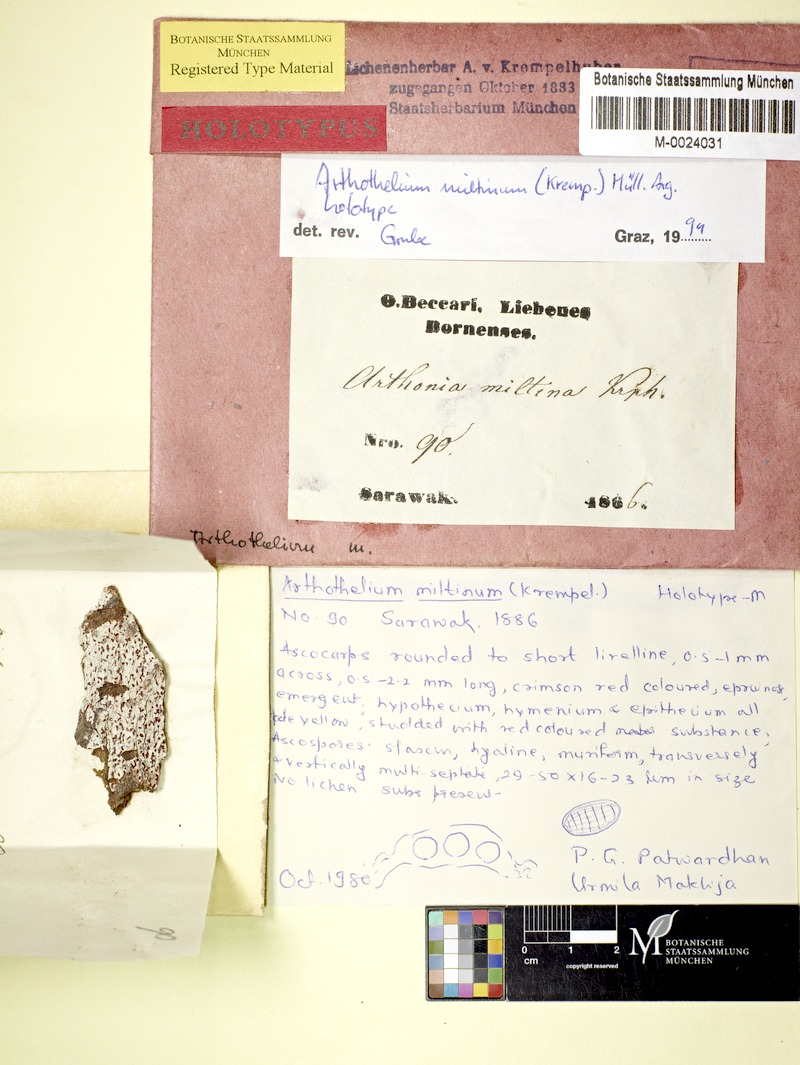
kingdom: Fungi
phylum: Ascomycota
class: Arthoniomycetes
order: Arthoniales
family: Arthoniaceae
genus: Arthothelium
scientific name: Arthothelium
